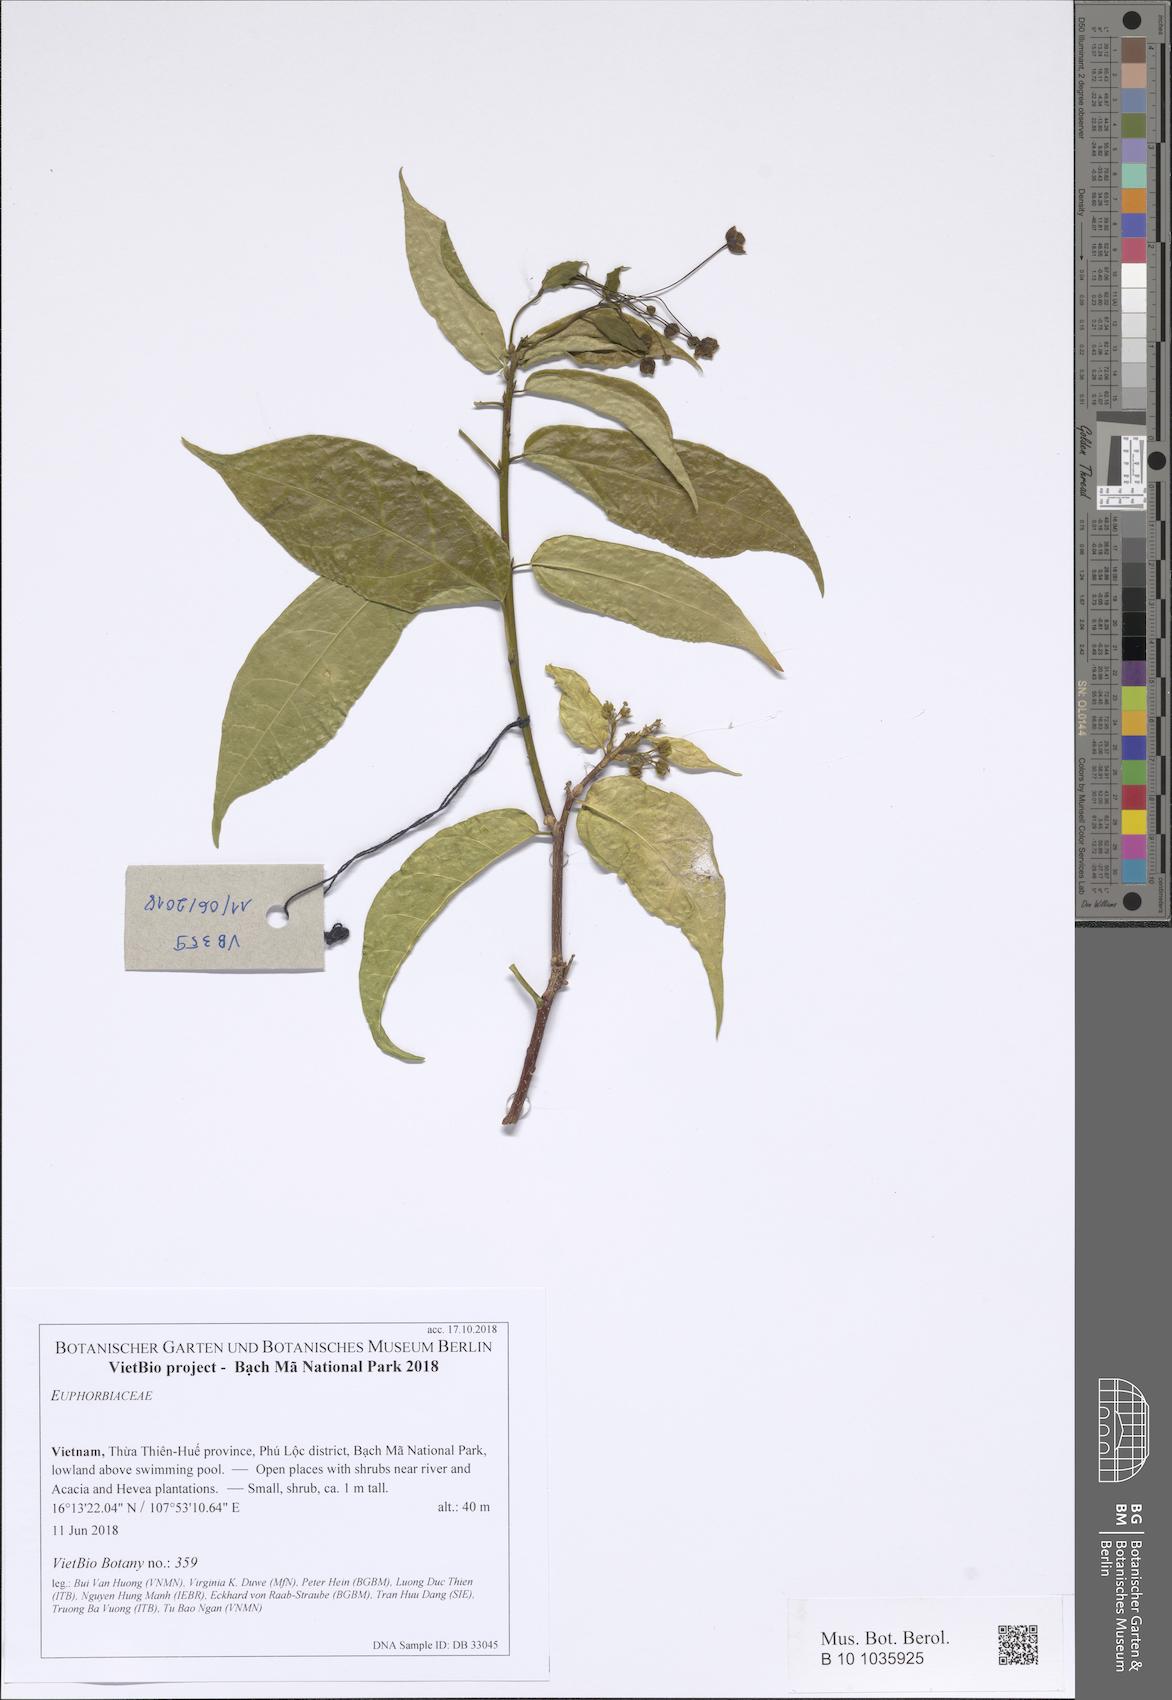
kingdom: Plantae
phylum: Tracheophyta
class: Magnoliopsida
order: Malpighiales
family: Euphorbiaceae
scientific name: Euphorbiaceae
